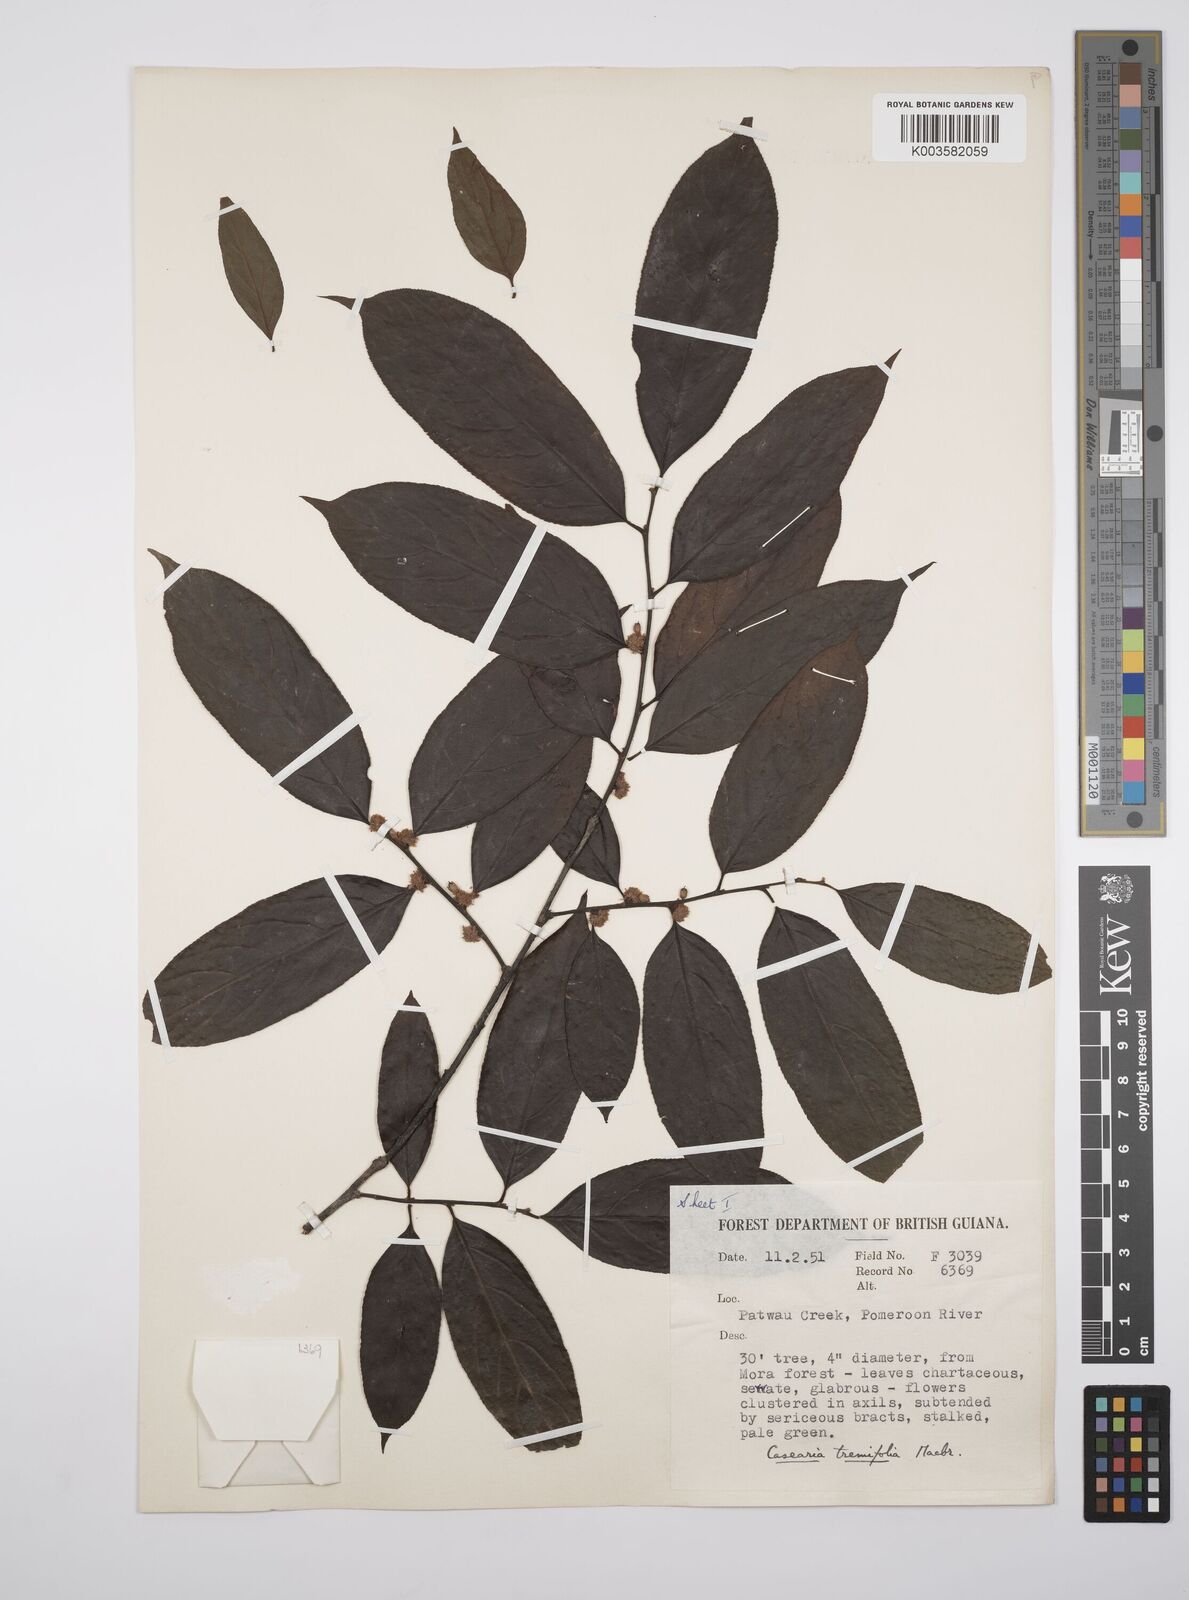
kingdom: Plantae
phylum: Tracheophyta
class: Magnoliopsida
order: Malpighiales
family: Salicaceae
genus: Casearia
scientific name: Casearia ulmifolia
